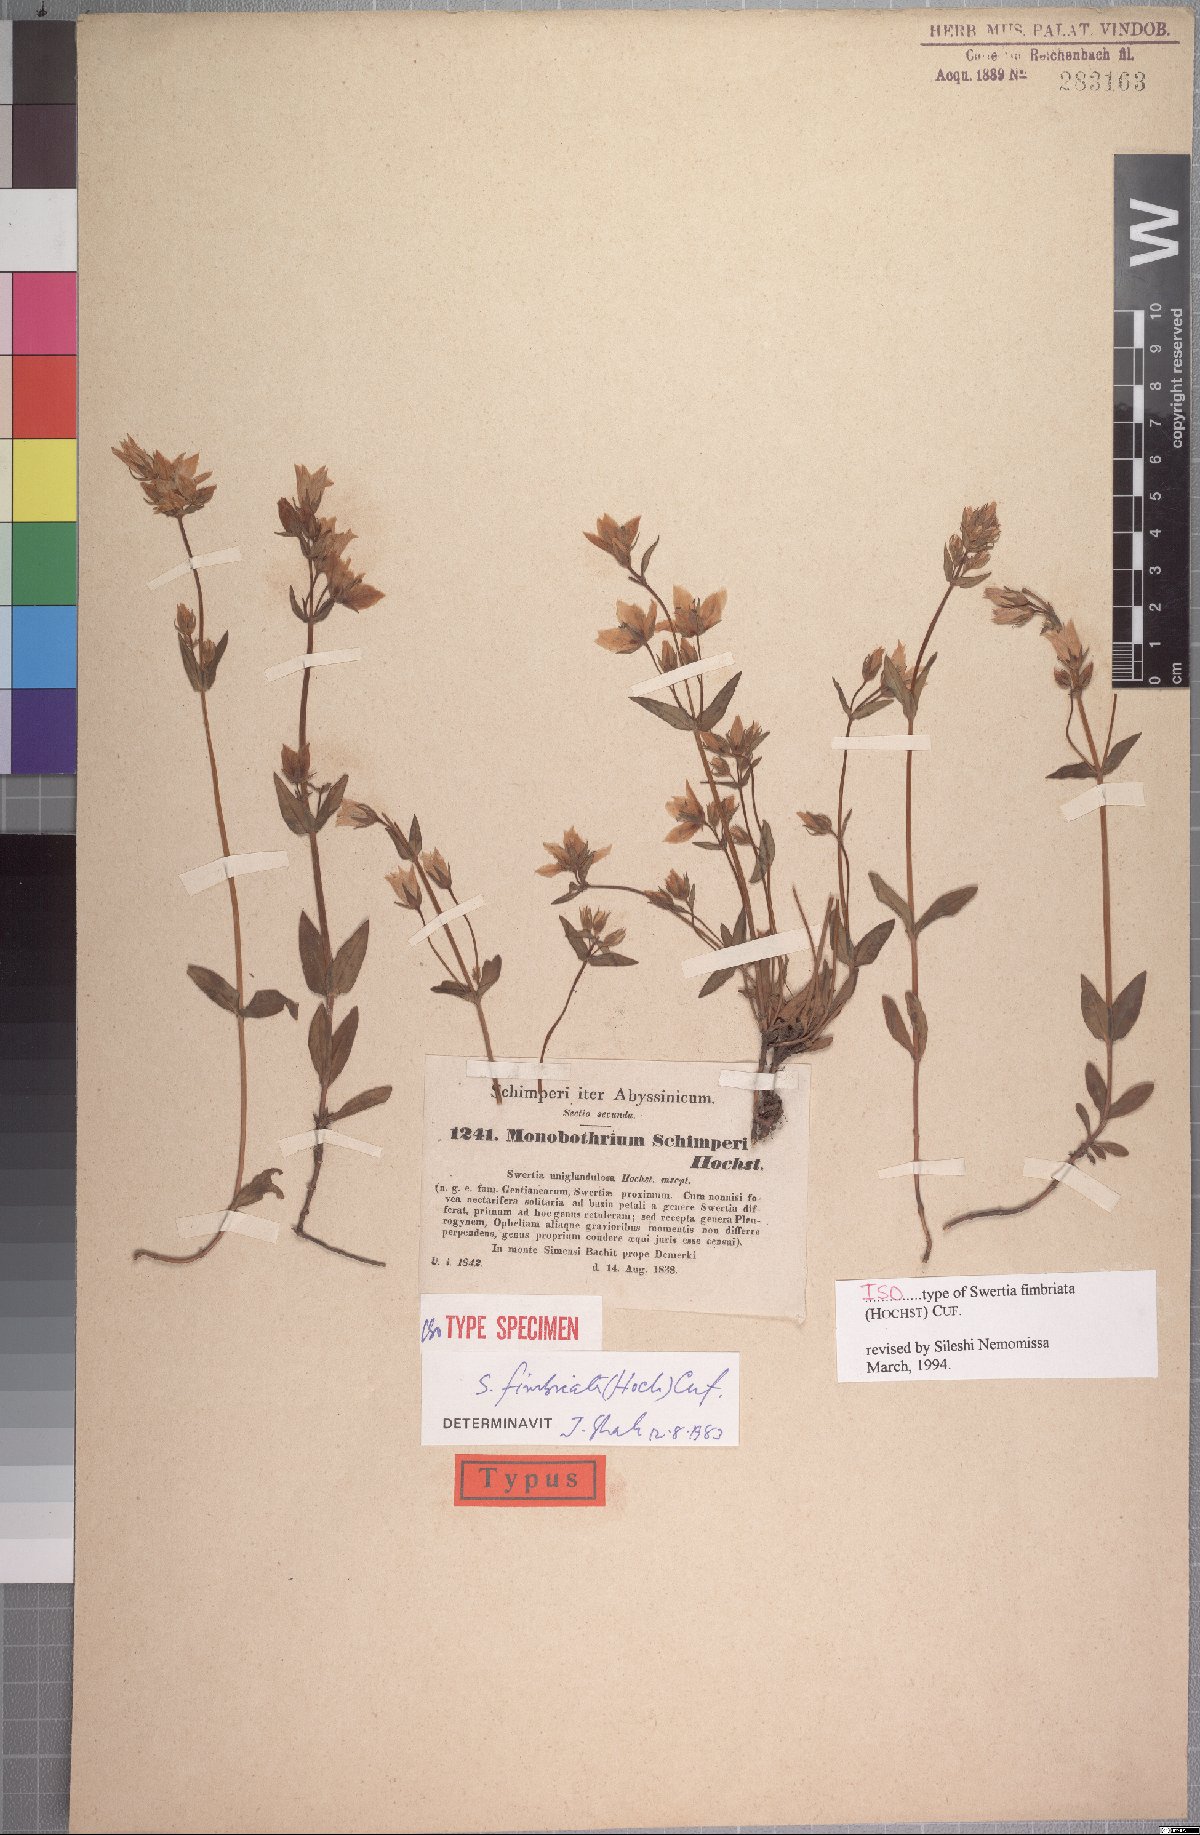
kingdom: Plantae
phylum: Tracheophyta
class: Magnoliopsida
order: Gentianales
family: Gentianaceae
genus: Swertia
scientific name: Swertia schimperi
